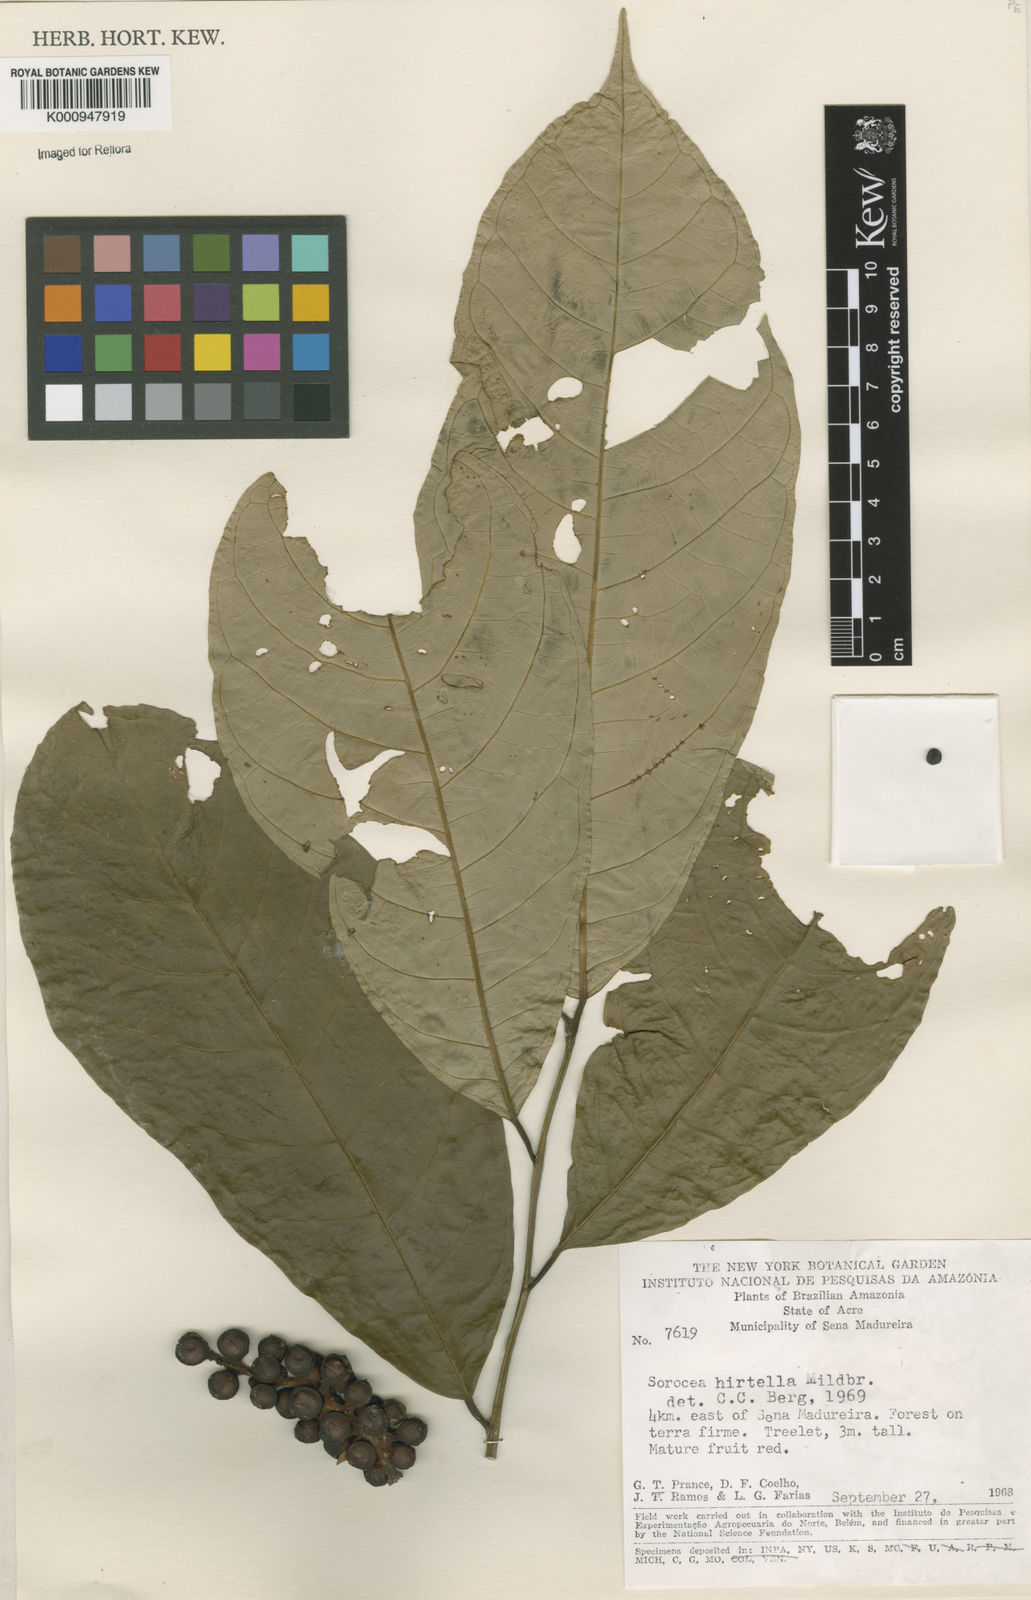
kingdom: Plantae
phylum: Tracheophyta
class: Magnoliopsida
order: Rosales
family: Moraceae
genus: Sorocea
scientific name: Sorocea pubivena
